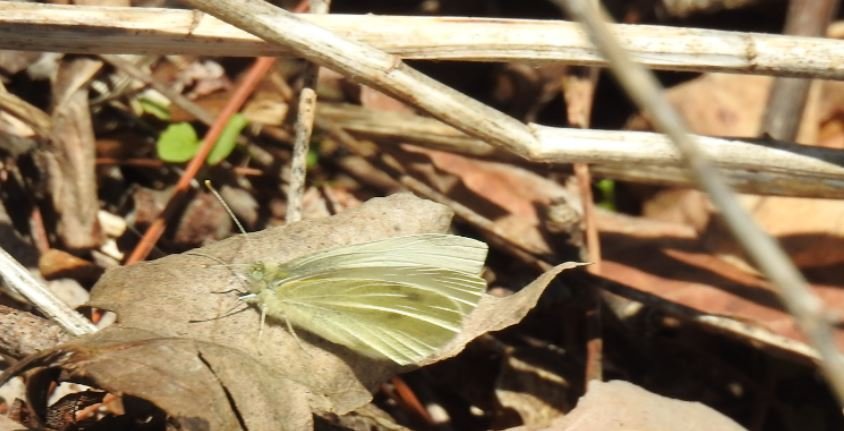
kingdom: Animalia
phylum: Arthropoda
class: Insecta
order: Lepidoptera
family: Pieridae
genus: Pieris
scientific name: Pieris rapae
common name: Cabbage White
